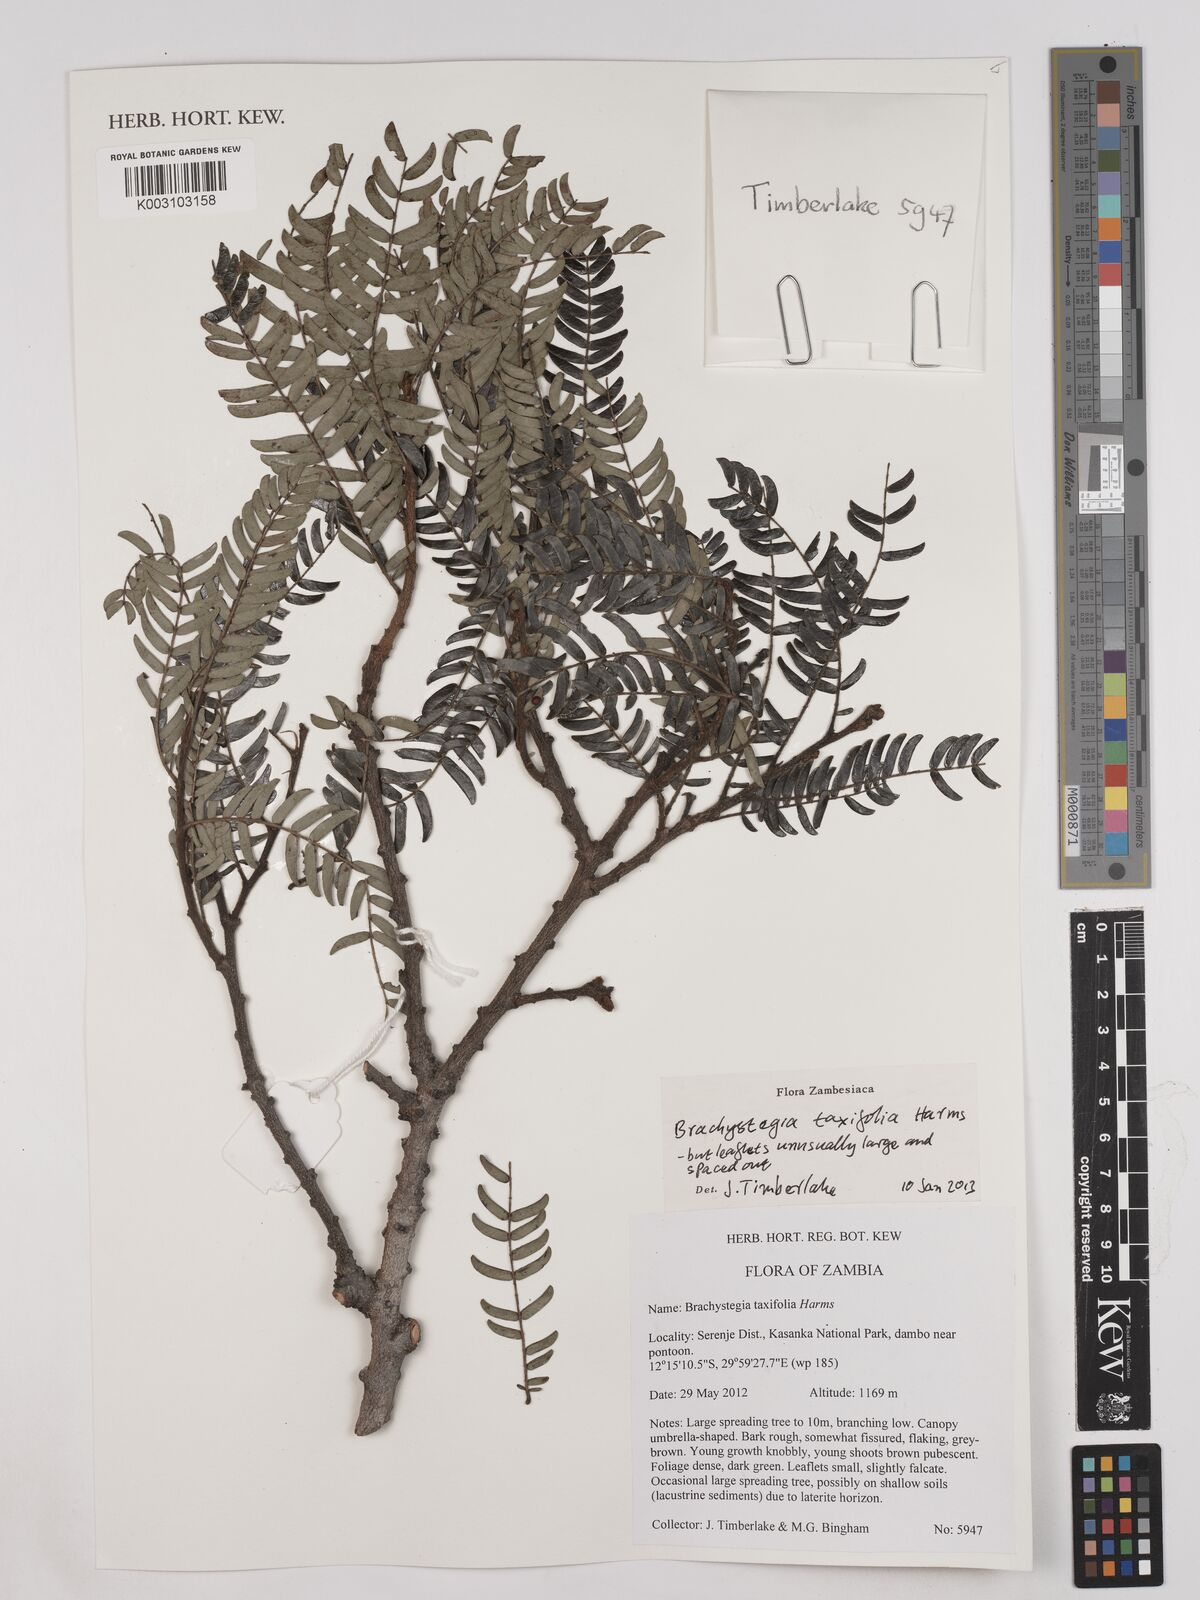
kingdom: Plantae
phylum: Tracheophyta
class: Magnoliopsida
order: Fabales
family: Fabaceae
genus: Brachystegia
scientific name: Brachystegia taxifolia
